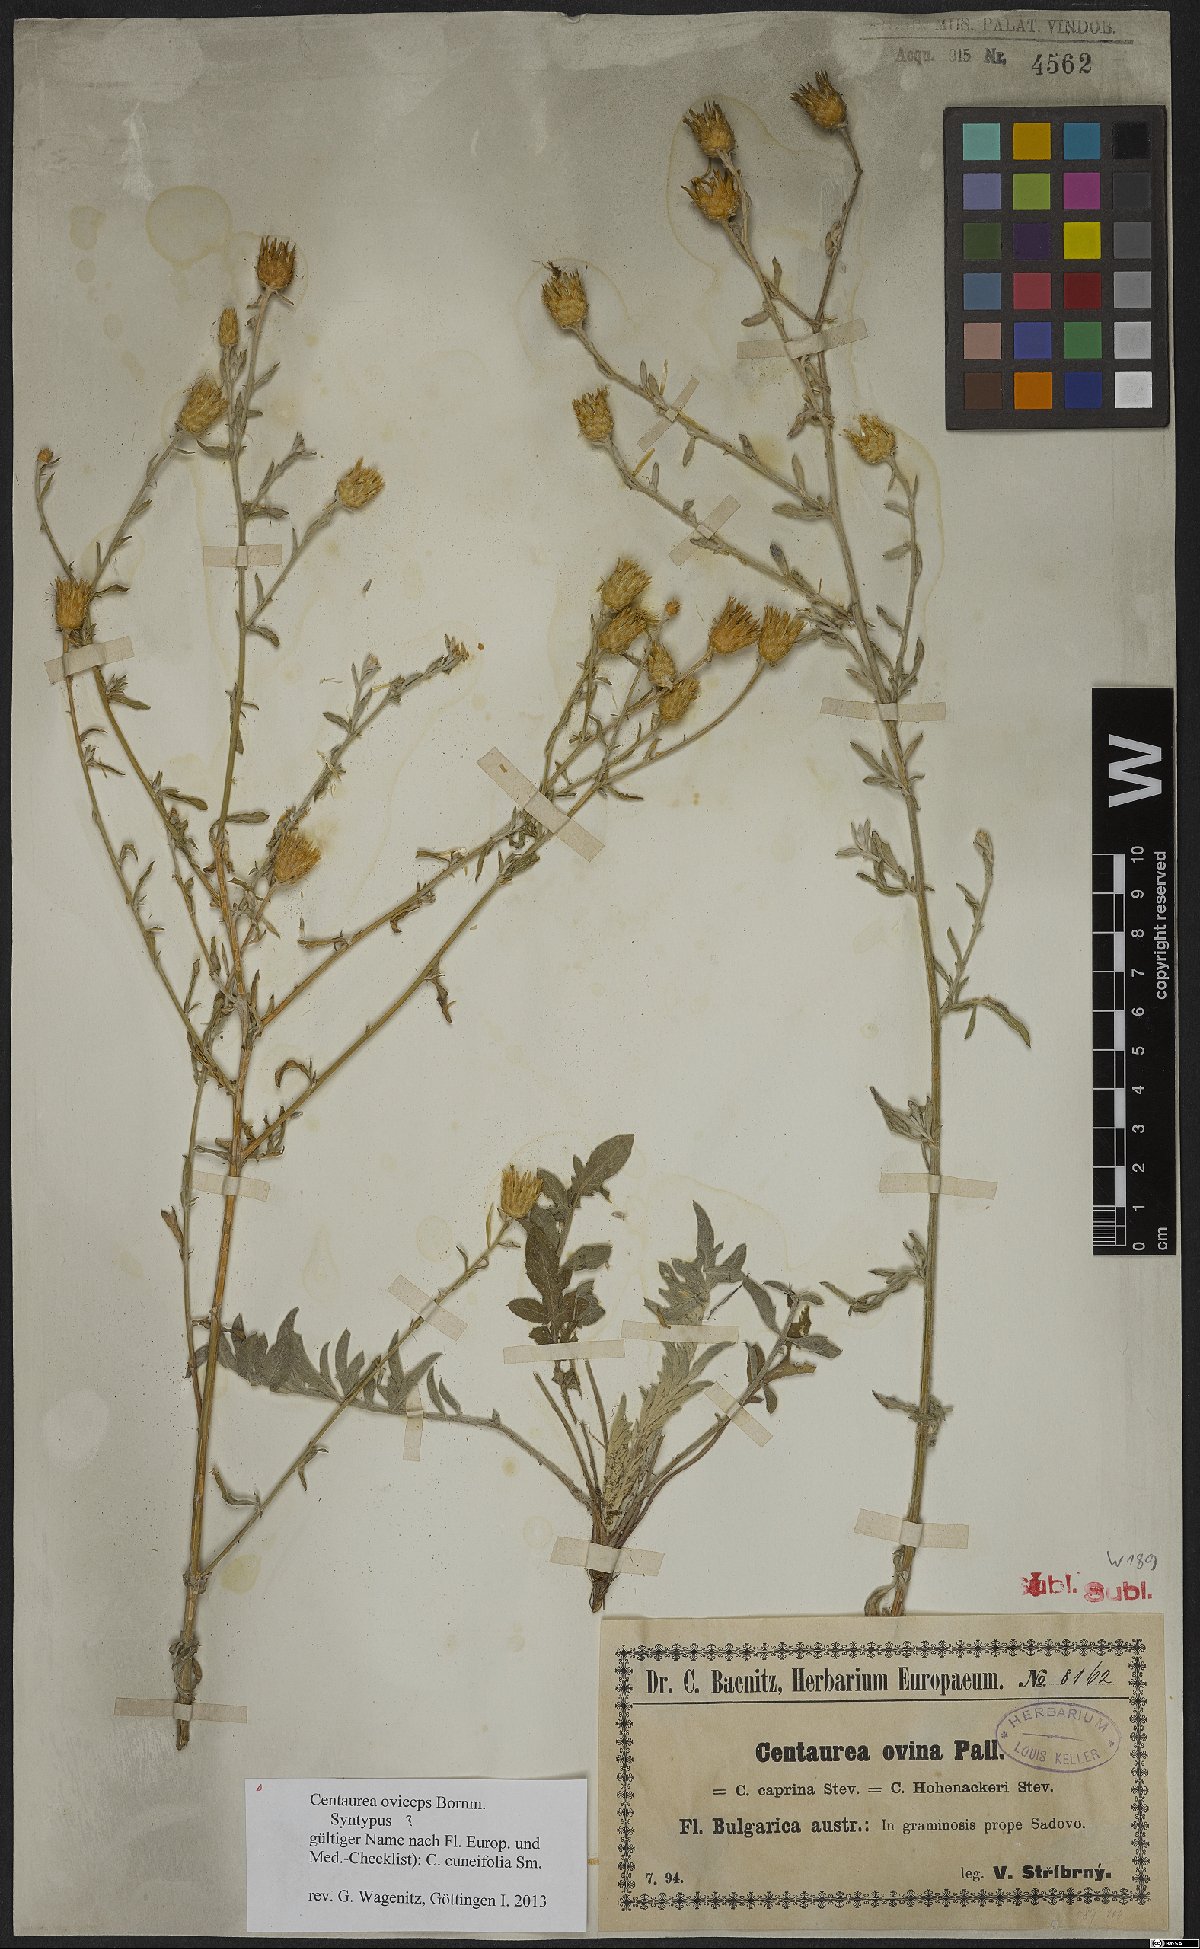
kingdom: Plantae
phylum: Tracheophyta
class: Magnoliopsida
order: Asterales
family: Asteraceae
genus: Centaurea
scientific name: Centaurea cuneifolia
